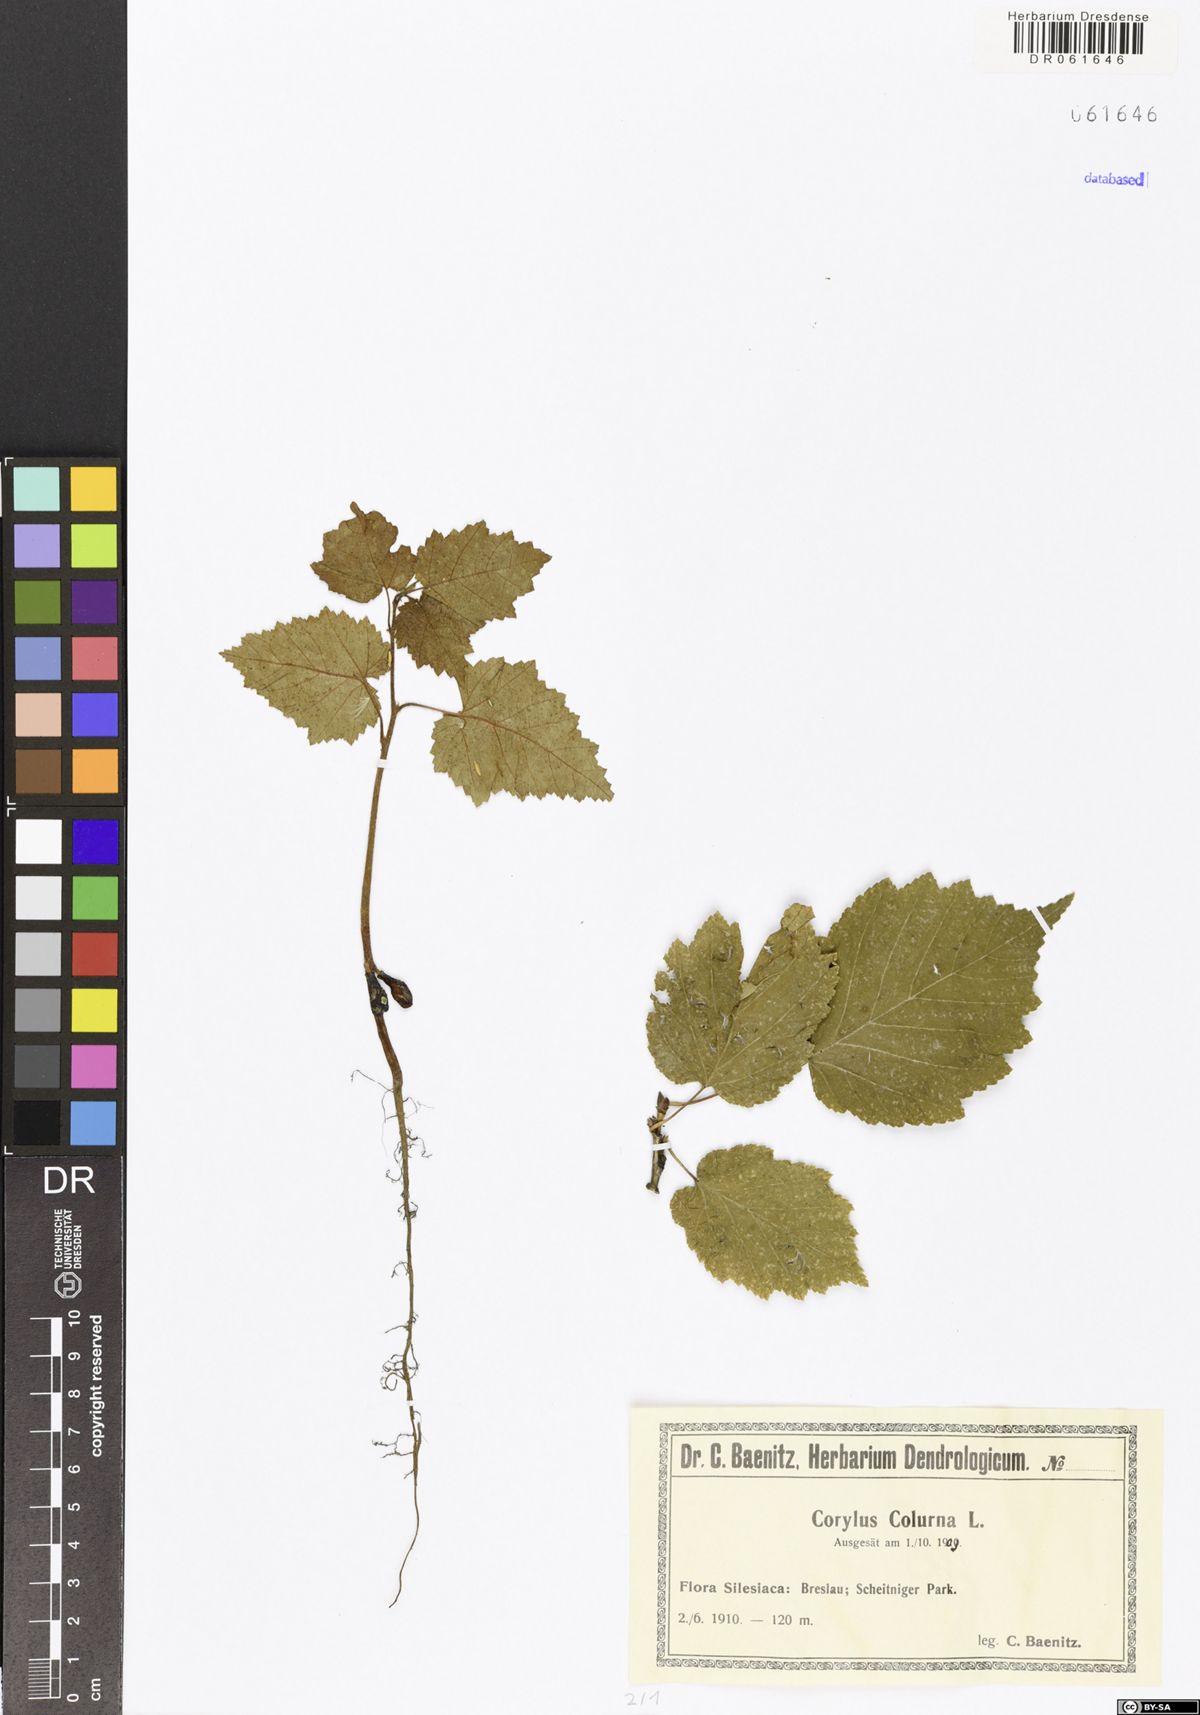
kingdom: Plantae
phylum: Tracheophyta
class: Magnoliopsida
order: Fagales
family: Betulaceae
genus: Corylus
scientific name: Corylus colurna
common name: Turkish hazel
